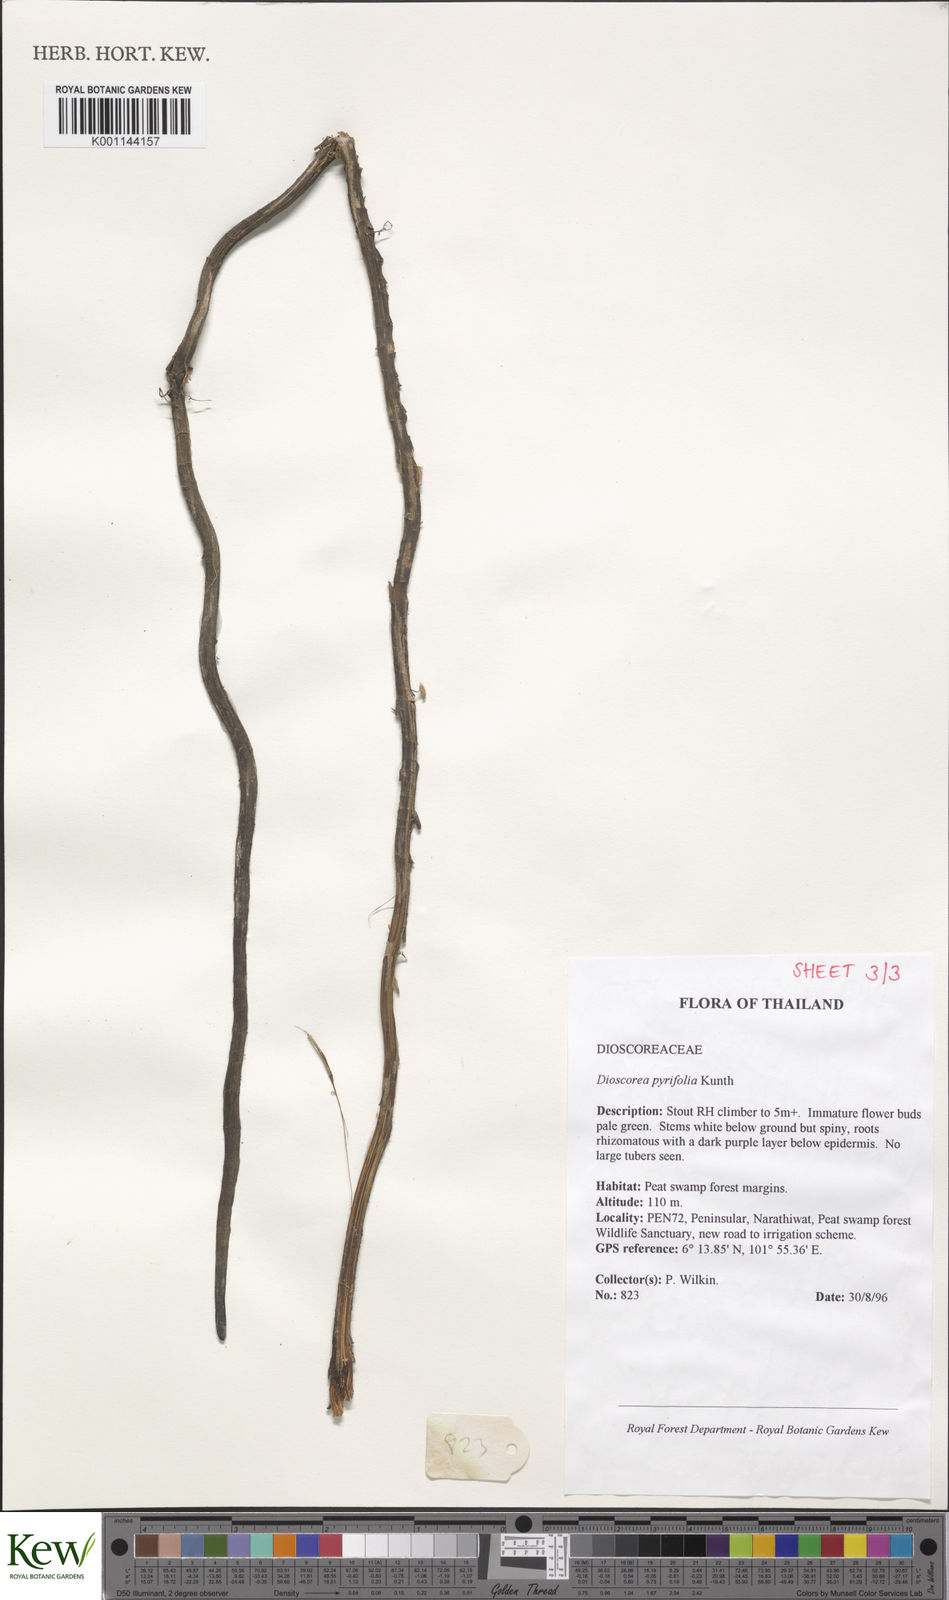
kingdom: Plantae
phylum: Tracheophyta
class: Liliopsida
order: Dioscoreales
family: Dioscoreaceae
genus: Dioscorea
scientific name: Dioscorea pyrifolia
